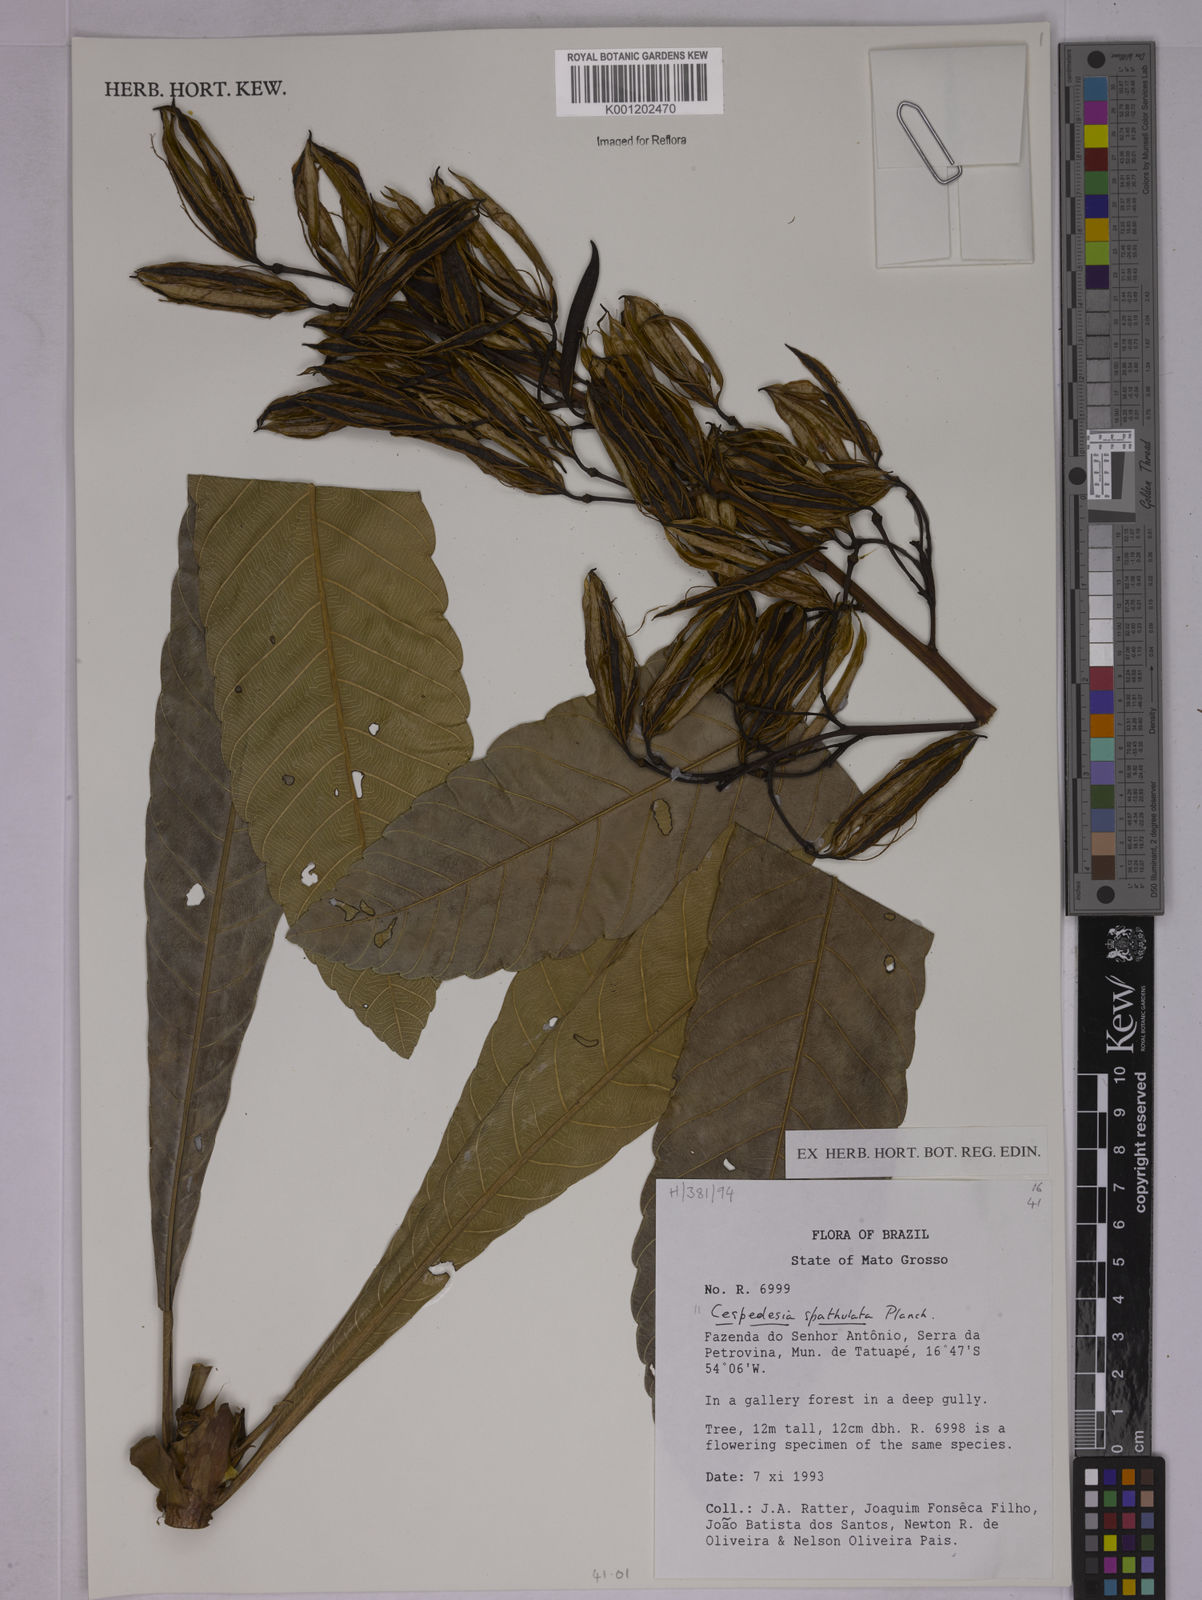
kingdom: Plantae
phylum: Tracheophyta
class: Magnoliopsida
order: Malpighiales
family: Ochnaceae
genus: Cespedesia
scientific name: Cespedesia spathulata
